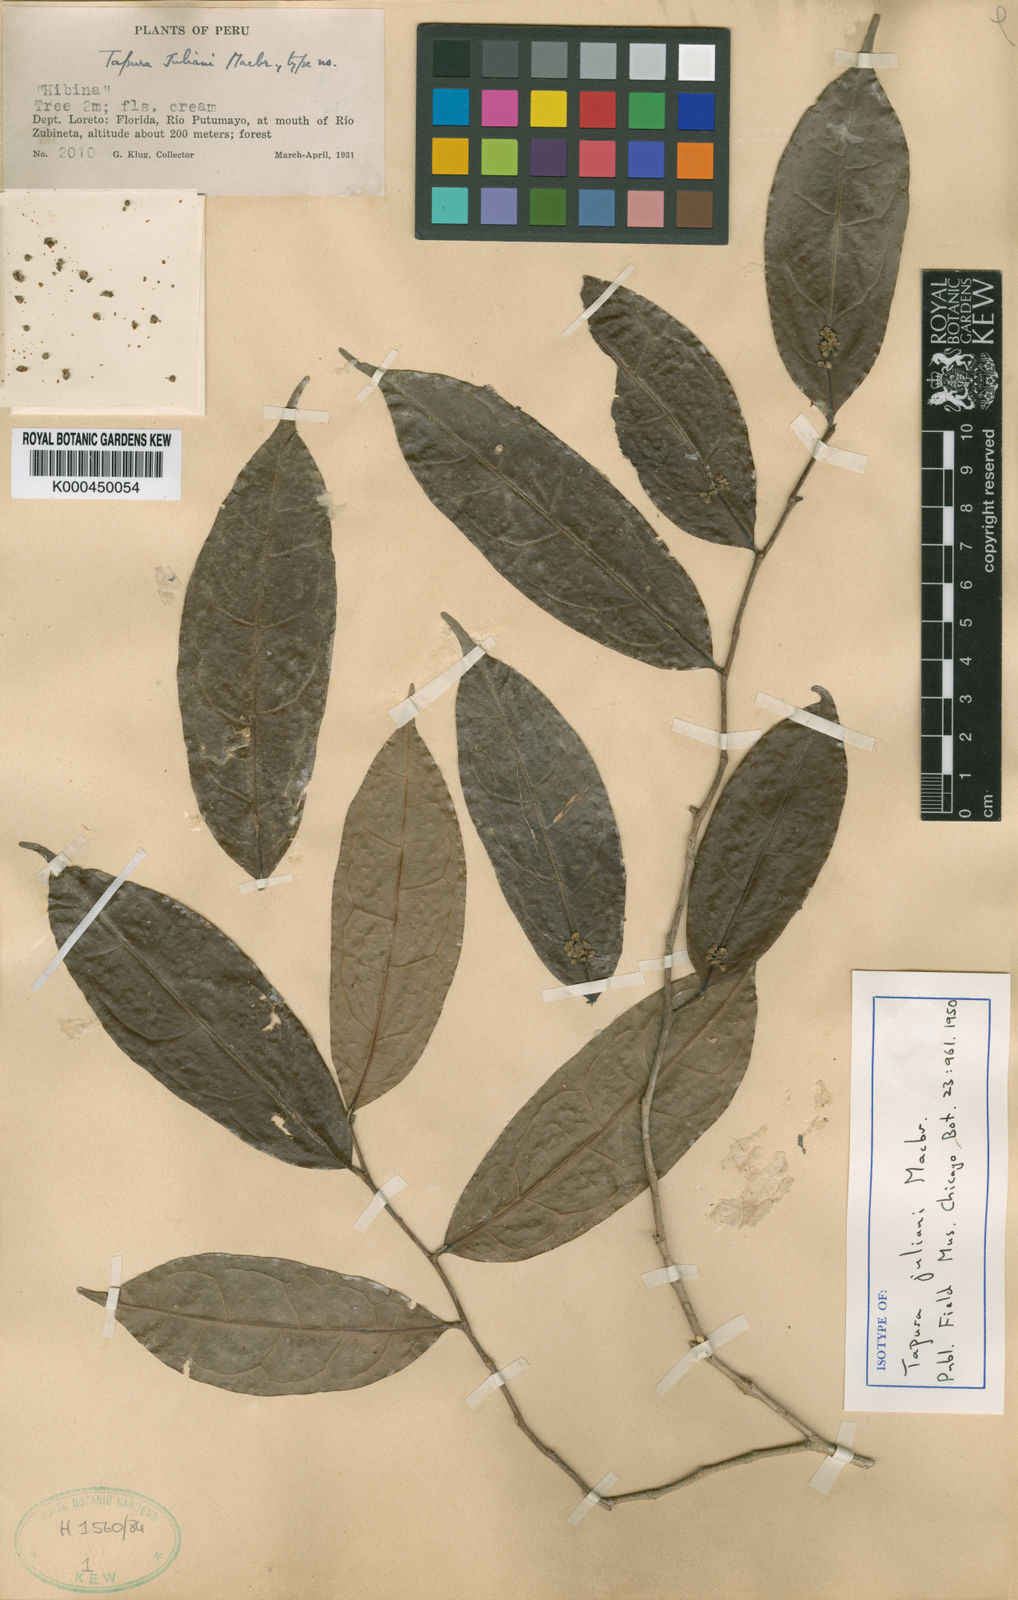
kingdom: Plantae
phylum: Tracheophyta
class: Magnoliopsida
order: Malpighiales
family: Dichapetalaceae
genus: Tapura
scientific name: Tapura
